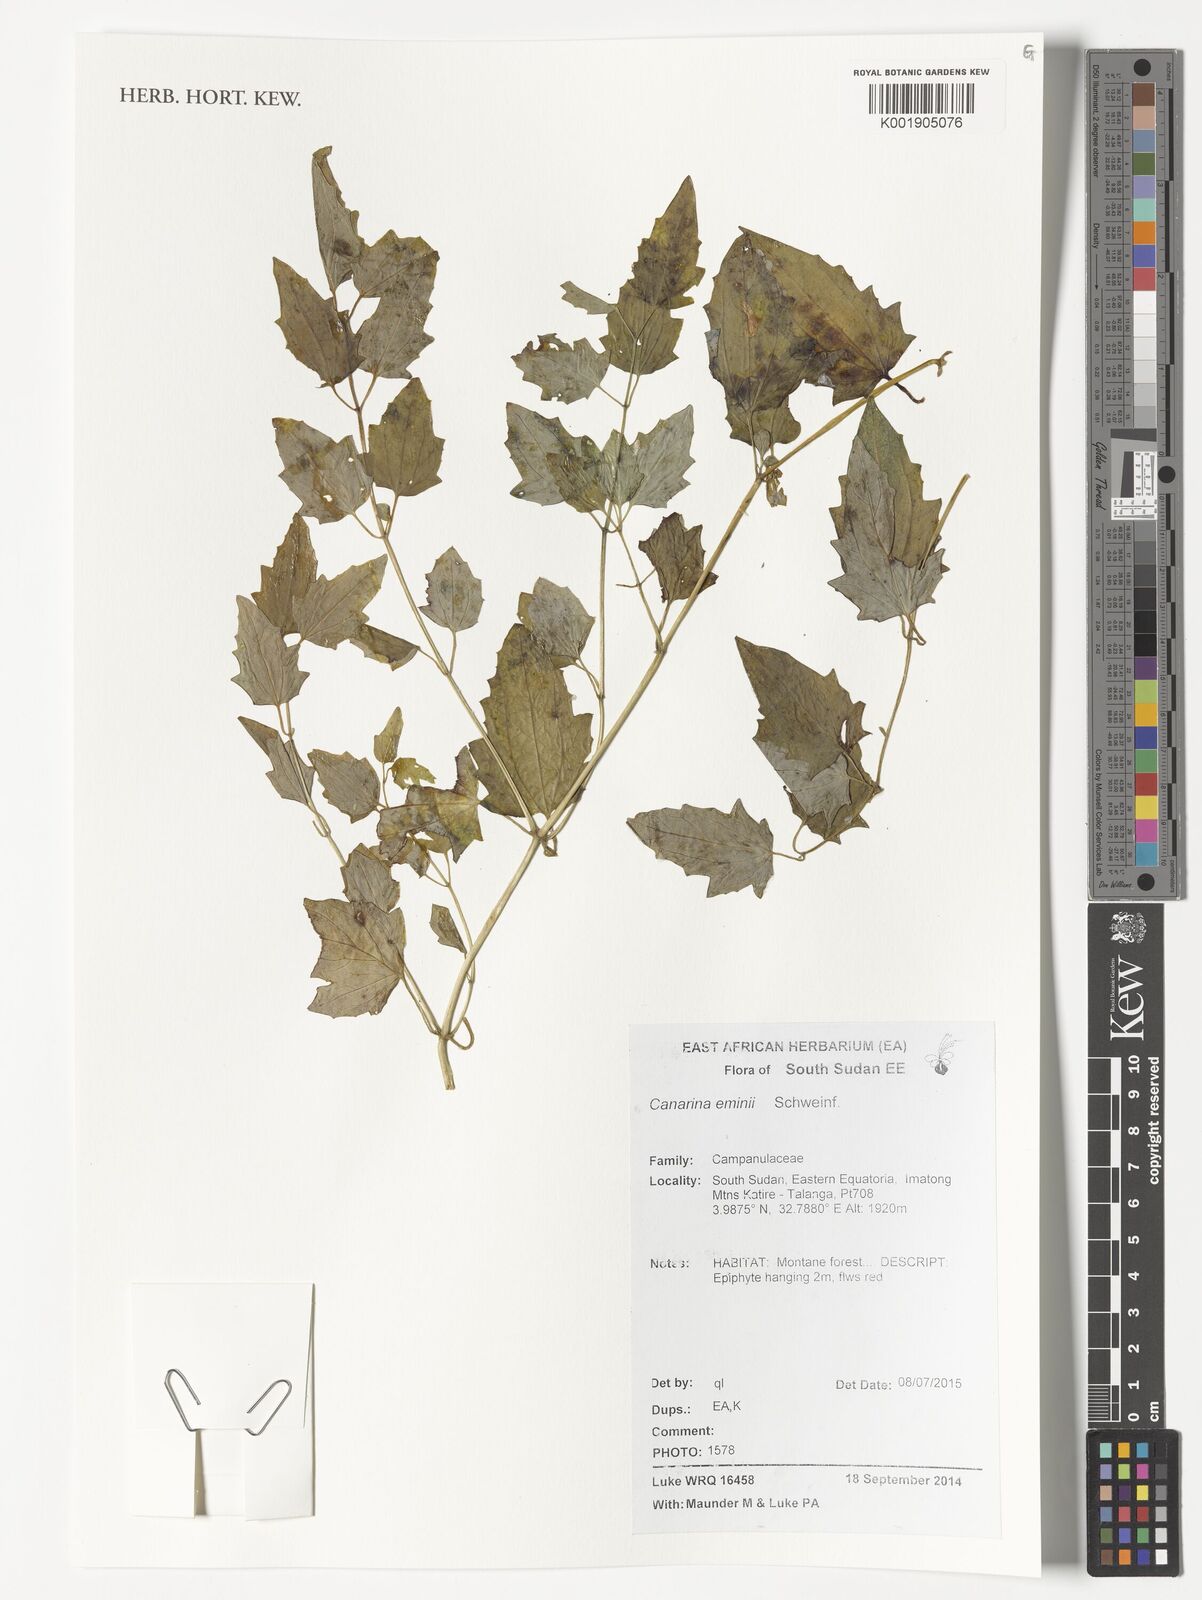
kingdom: Plantae
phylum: Tracheophyta
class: Magnoliopsida
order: Asterales
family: Campanulaceae
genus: Canarina
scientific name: Canarina eminii
